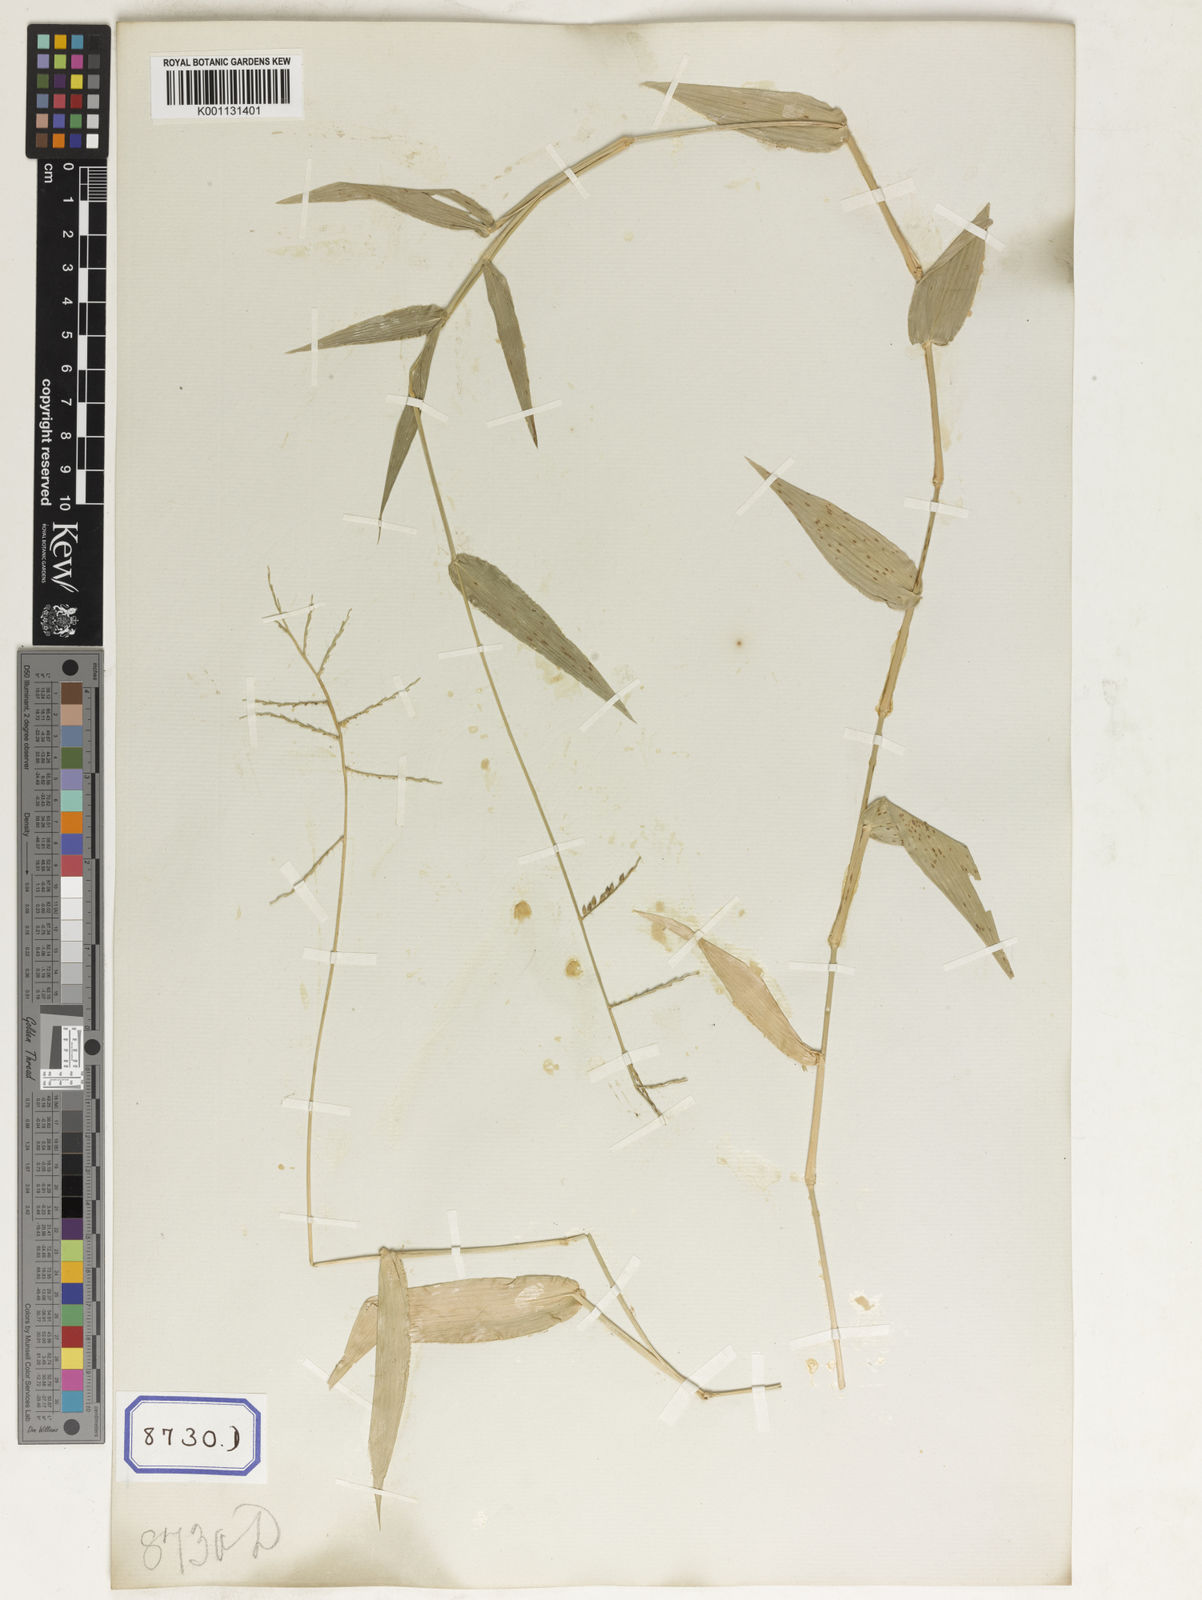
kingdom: Plantae
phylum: Tracheophyta
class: Liliopsida
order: Poales
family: Poaceae
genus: Panicum
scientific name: Panicum
